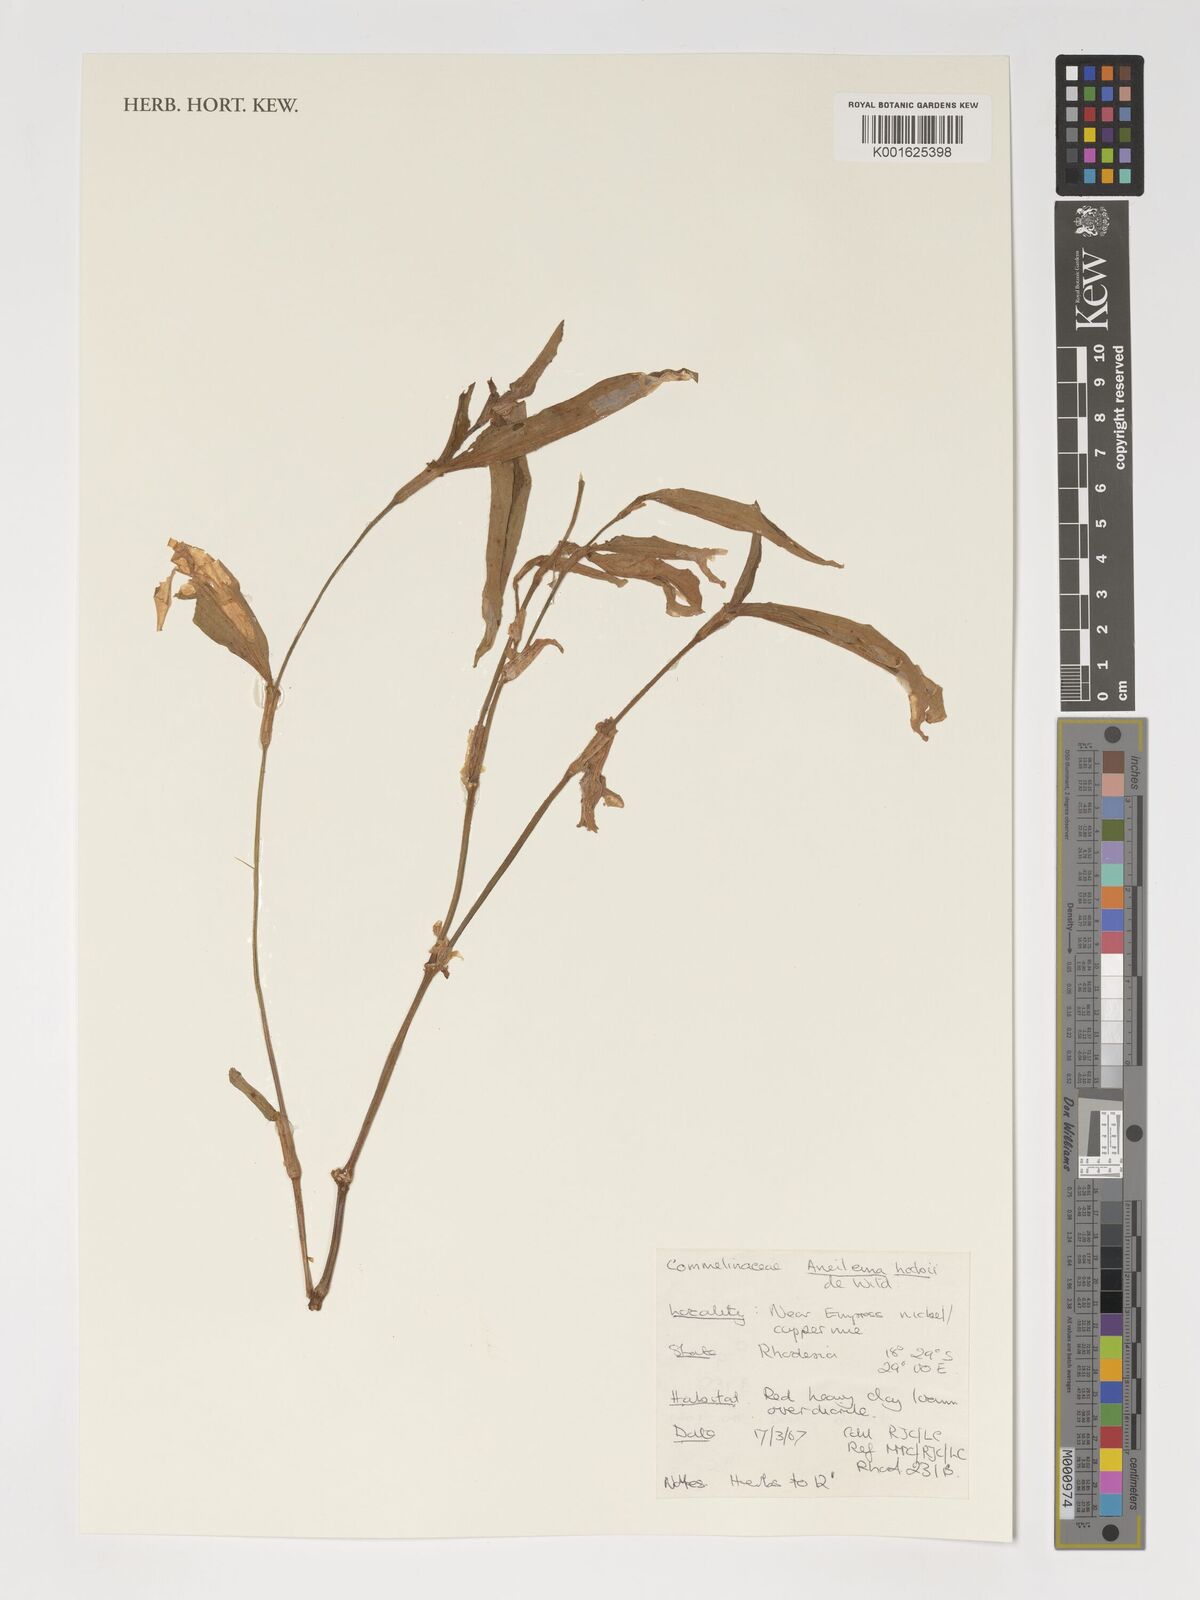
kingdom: Plantae
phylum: Tracheophyta
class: Liliopsida
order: Commelinales
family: Commelinaceae
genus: Aneilema
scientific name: Aneilema hockii
